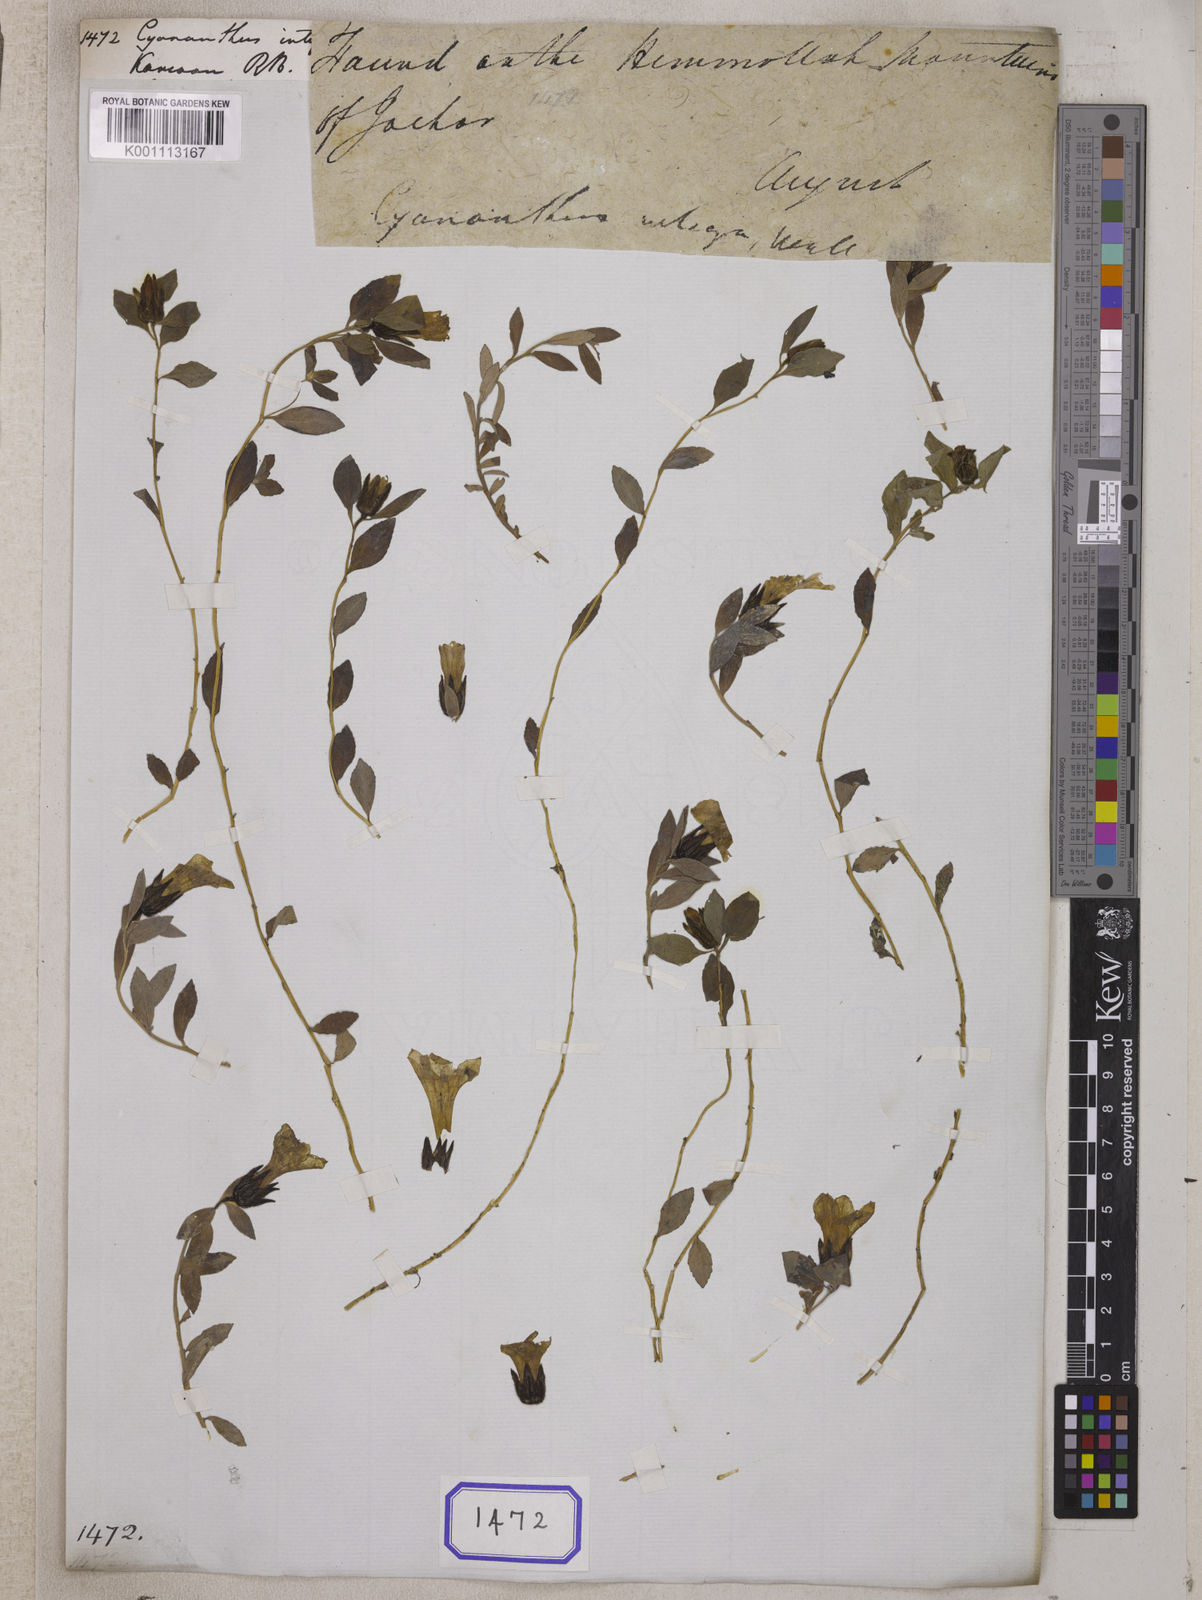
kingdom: Plantae
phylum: Tracheophyta
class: Magnoliopsida
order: Asterales
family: Campanulaceae
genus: Cyananthus
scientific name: Cyananthus
